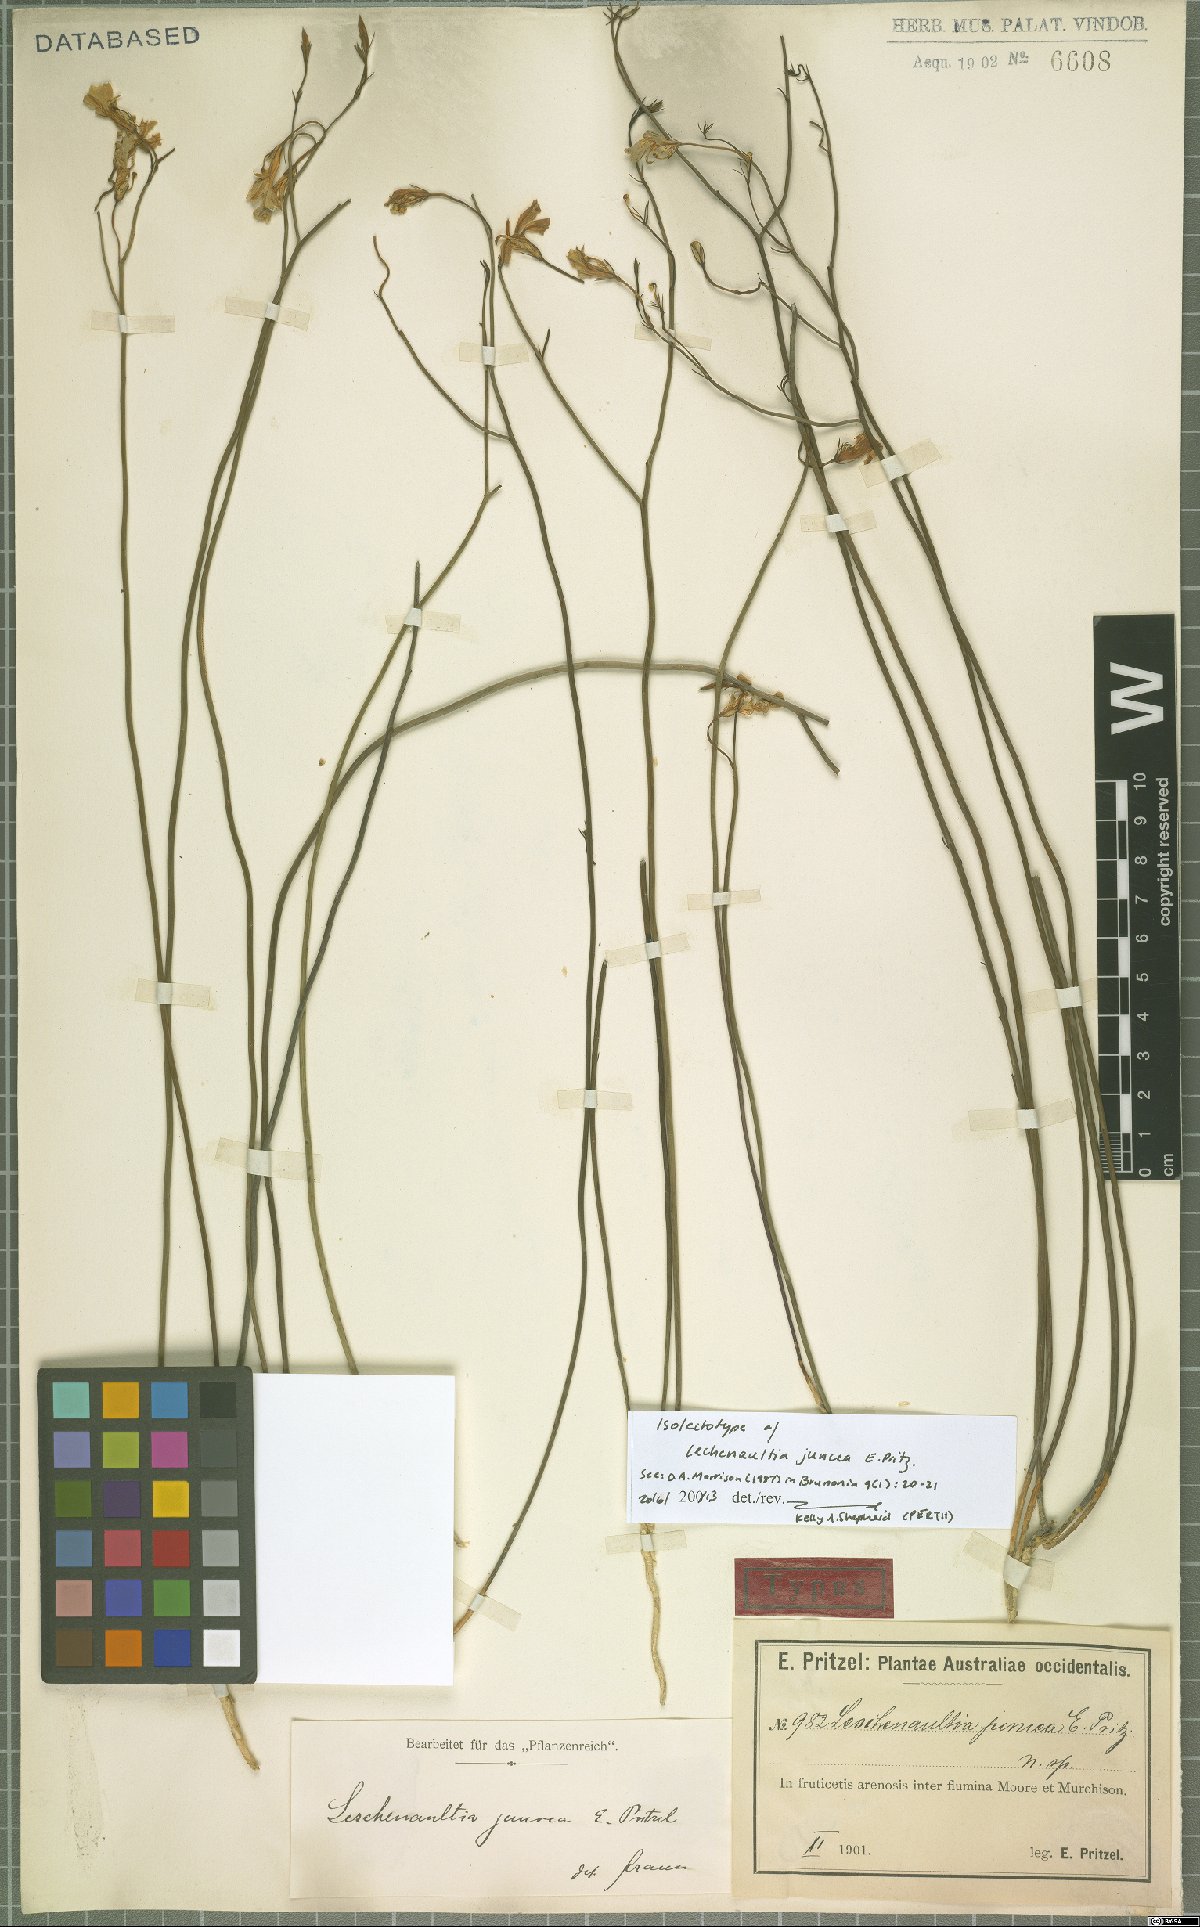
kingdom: Plantae
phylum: Tracheophyta
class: Magnoliopsida
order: Asterales
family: Goodeniaceae
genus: Lechenaultia
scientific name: Lechenaultia juncea
